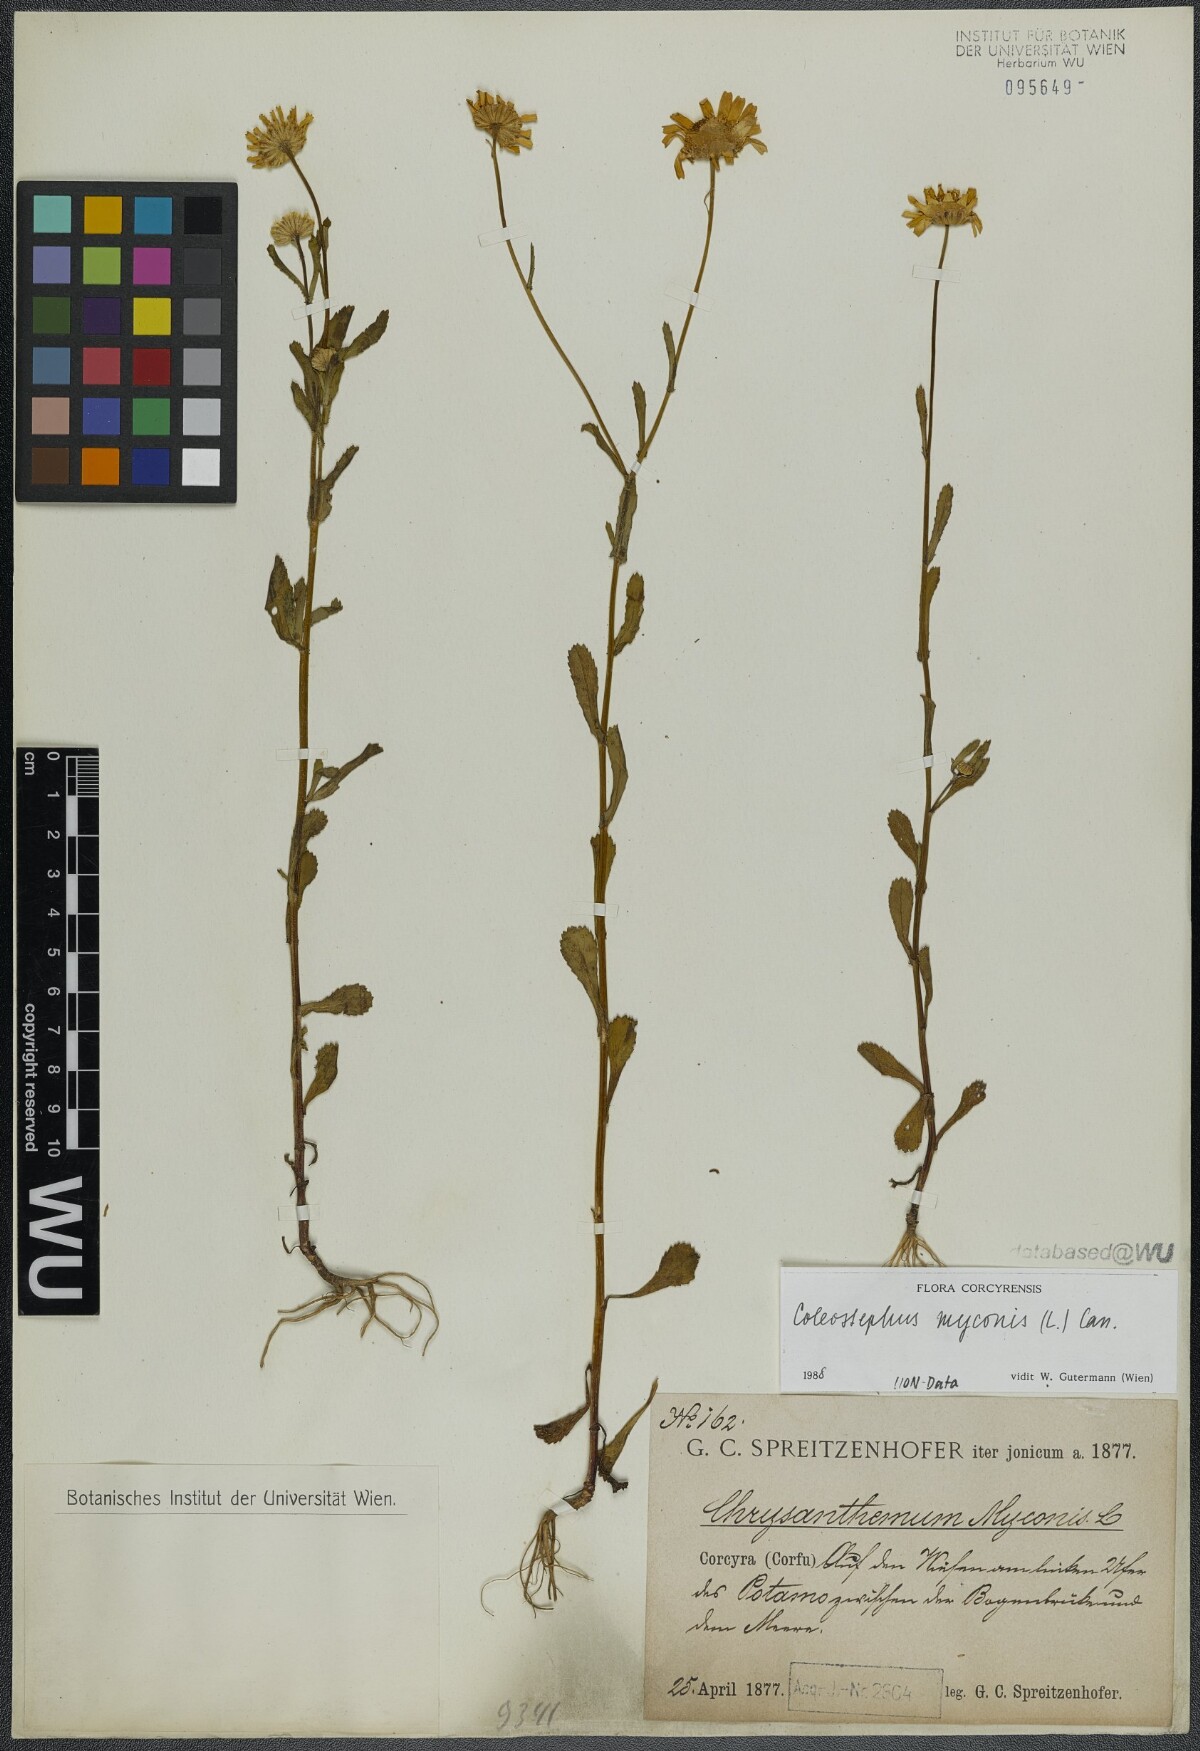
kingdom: Plantae
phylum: Tracheophyta
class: Magnoliopsida
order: Asterales
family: Asteraceae
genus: Coleostephus
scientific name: Coleostephus myconis
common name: Mediterranean marigold
